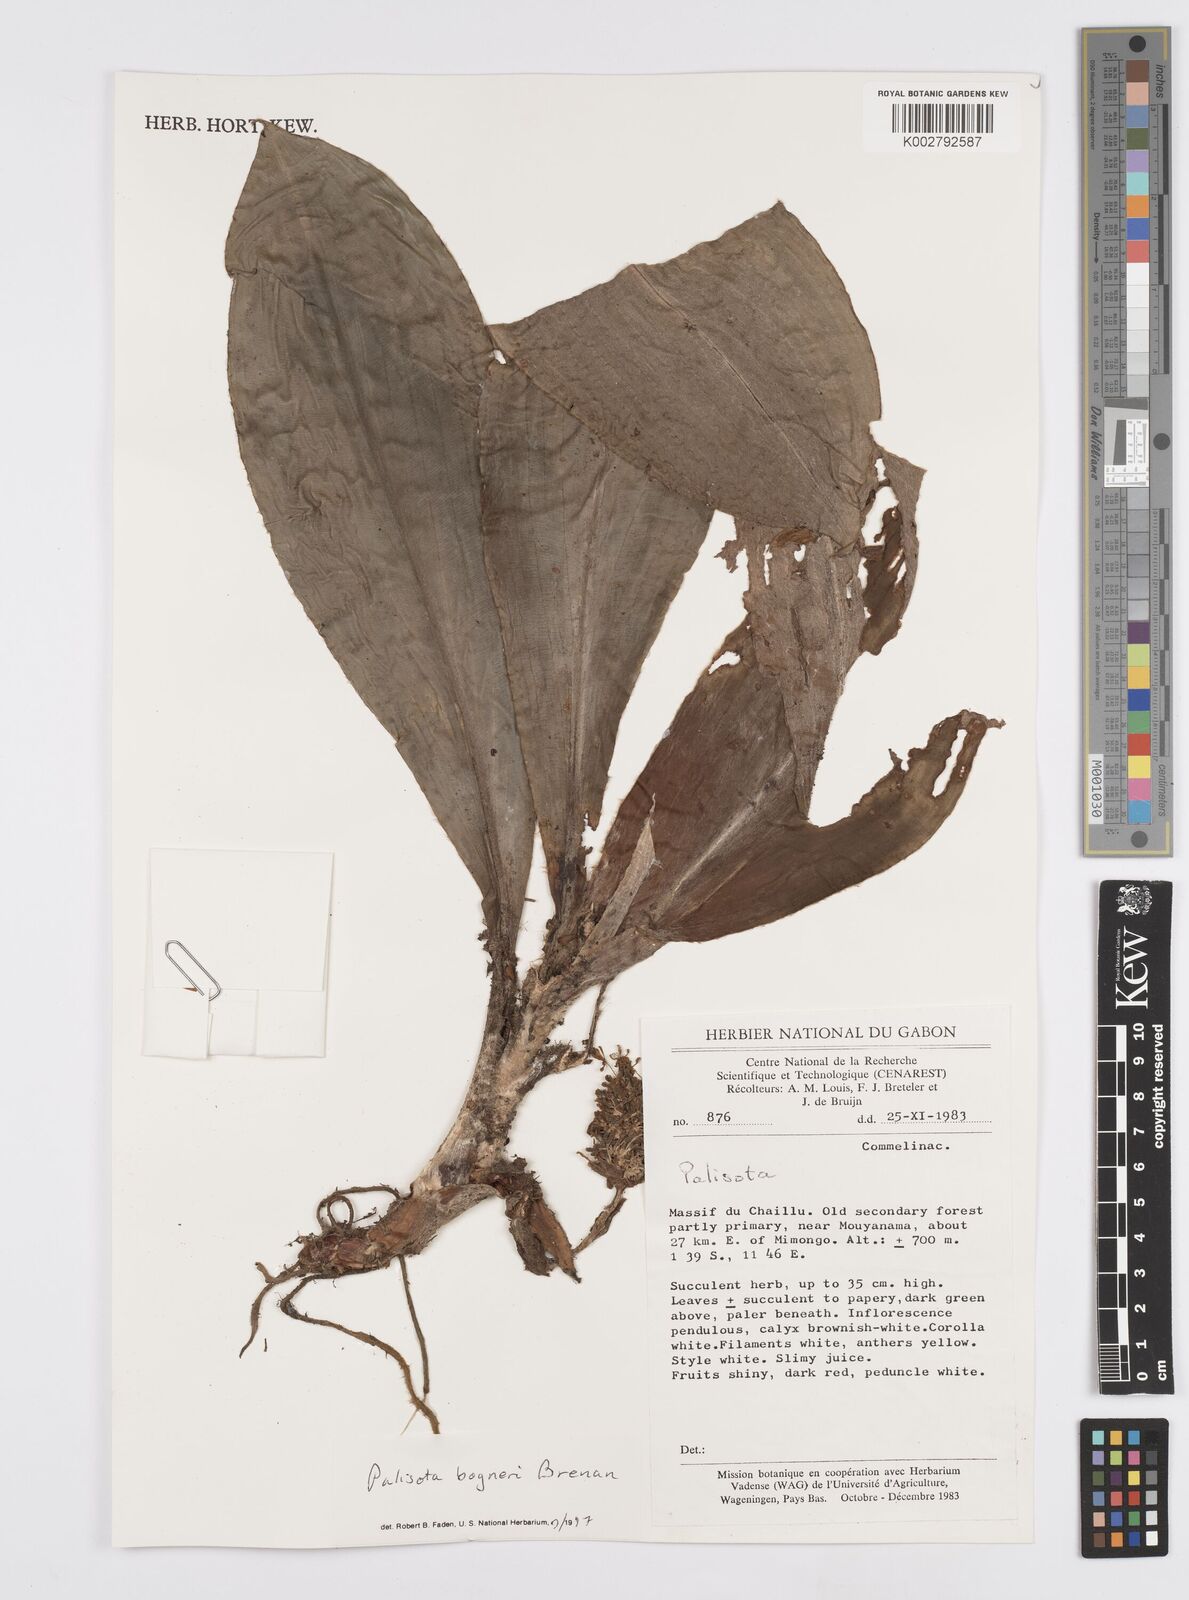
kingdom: Plantae
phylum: Tracheophyta
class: Liliopsida
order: Commelinales
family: Commelinaceae
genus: Palisota
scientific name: Palisota bogneri
